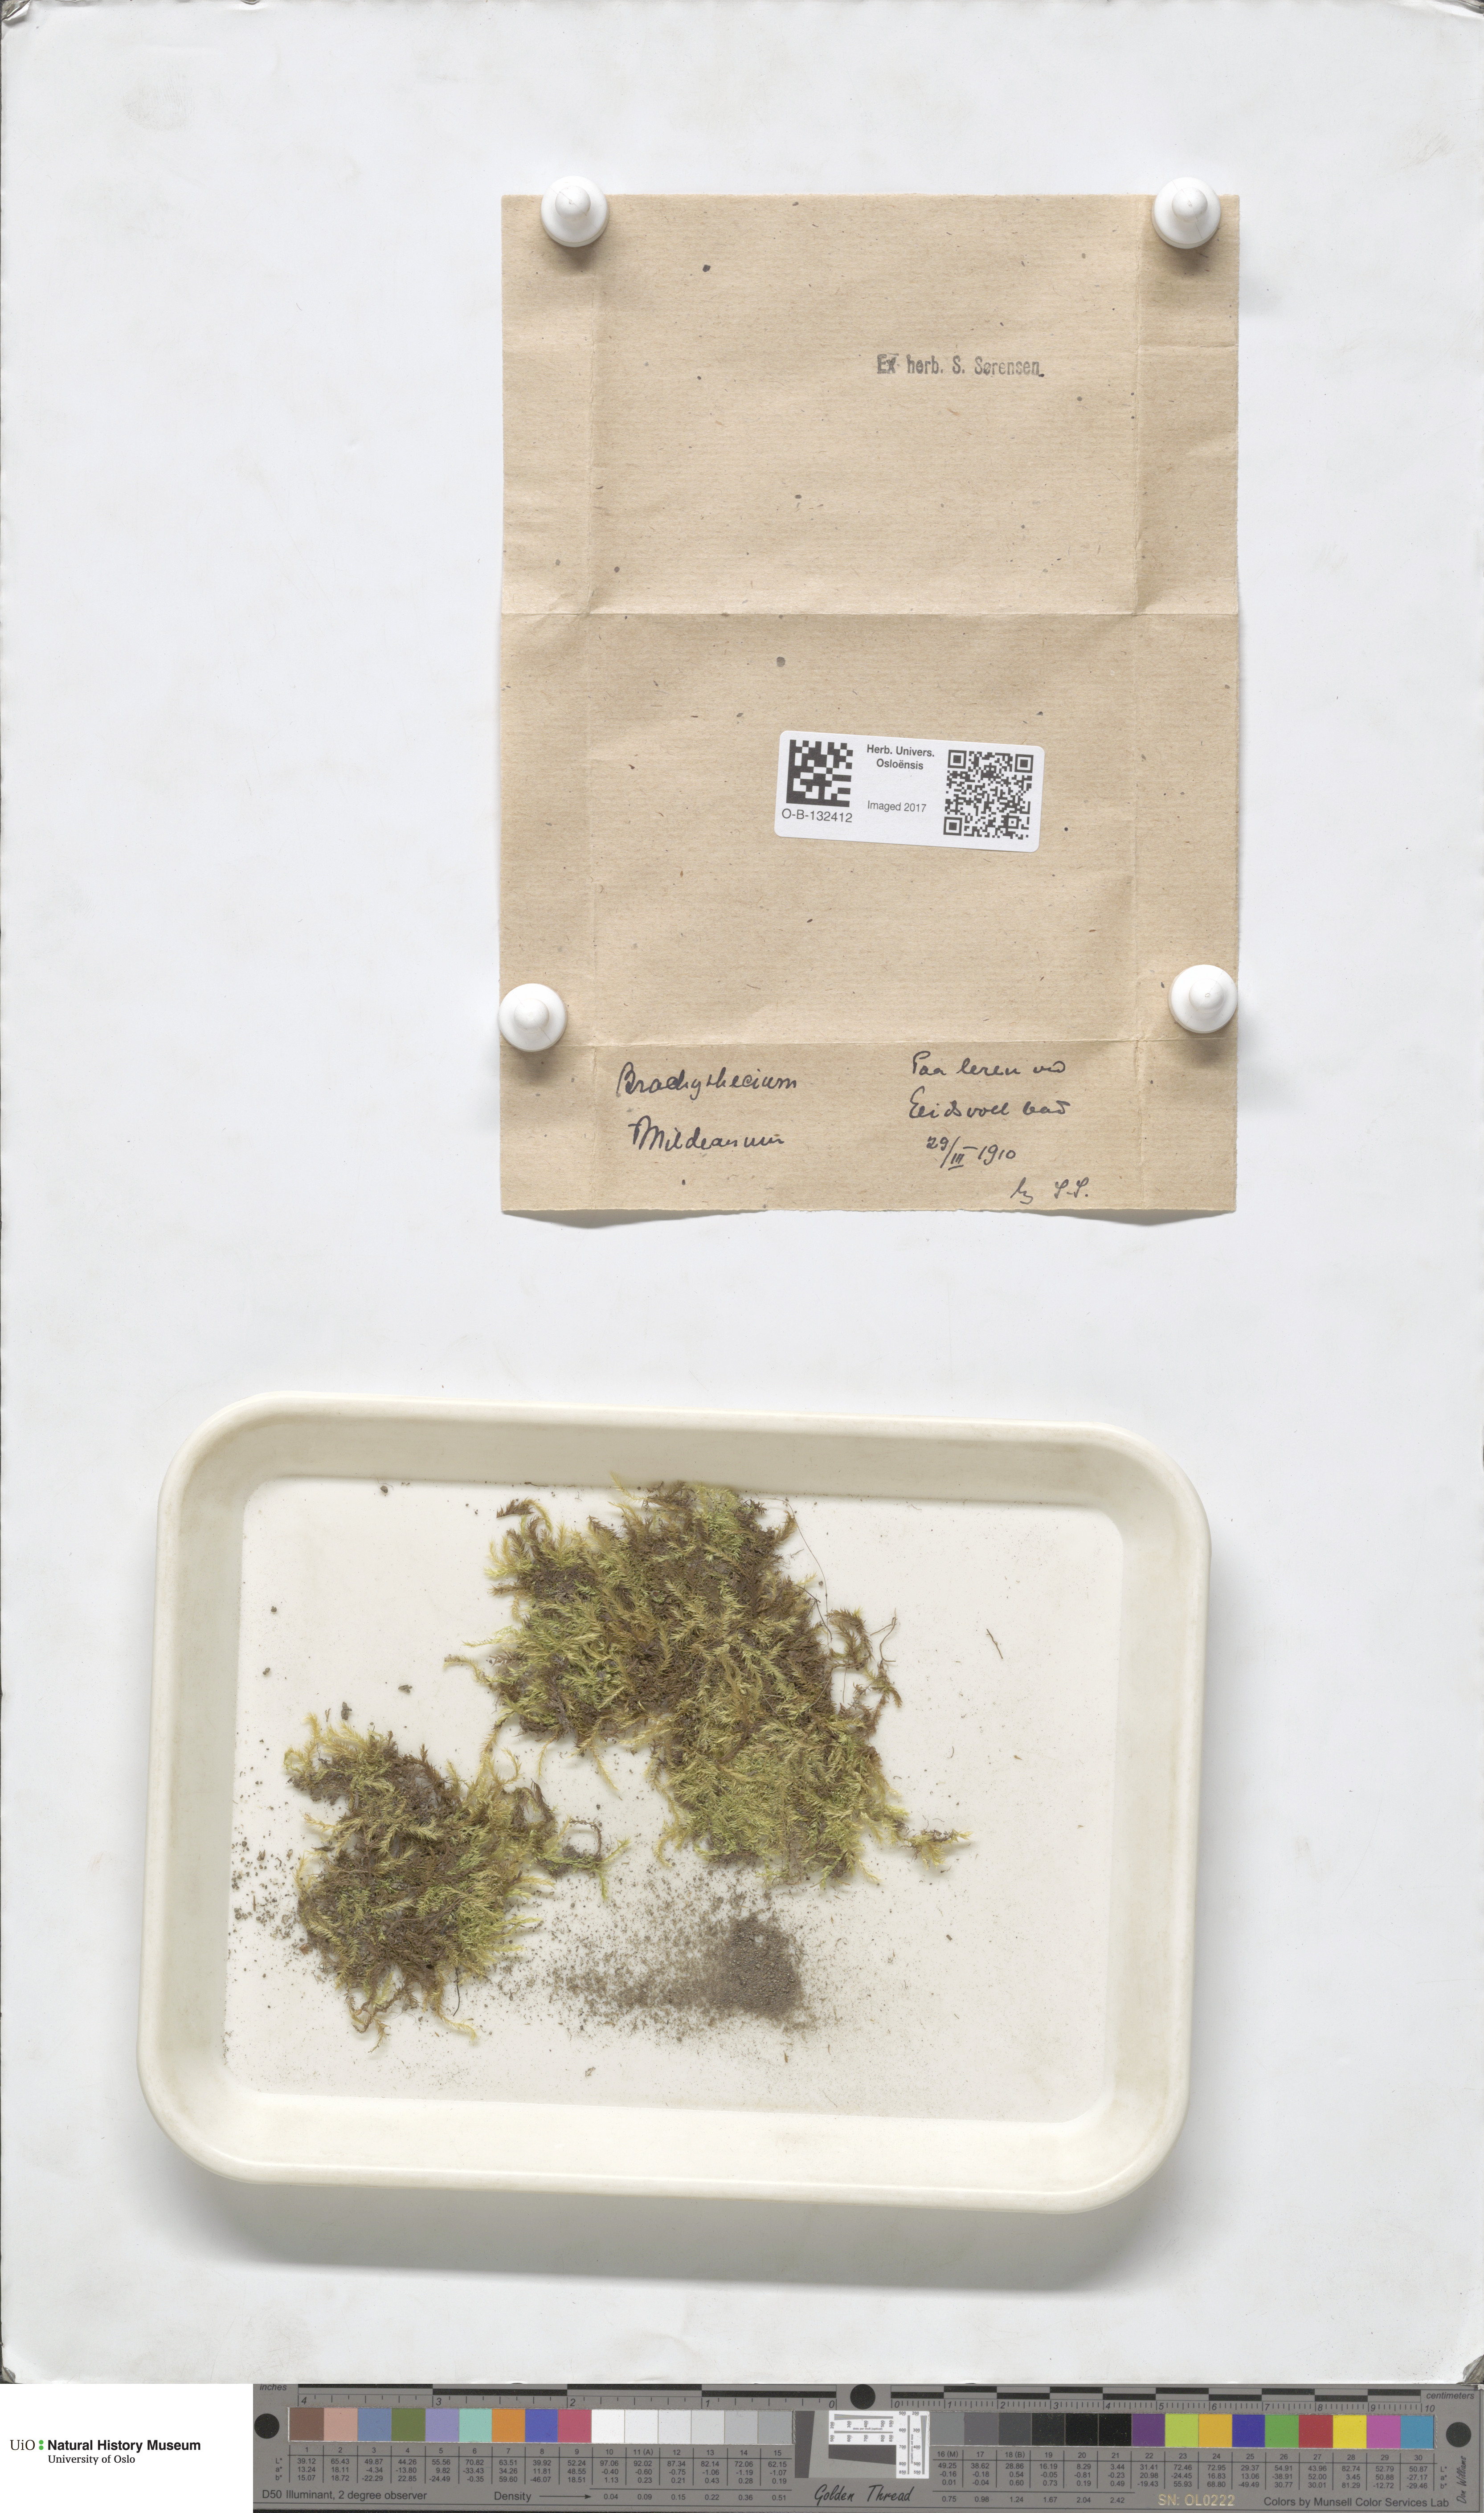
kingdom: Plantae
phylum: Bryophyta
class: Bryopsida
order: Hypnales
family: Brachytheciaceae
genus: Brachythecium
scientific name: Brachythecium mildeanum
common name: Sand feather-moss
